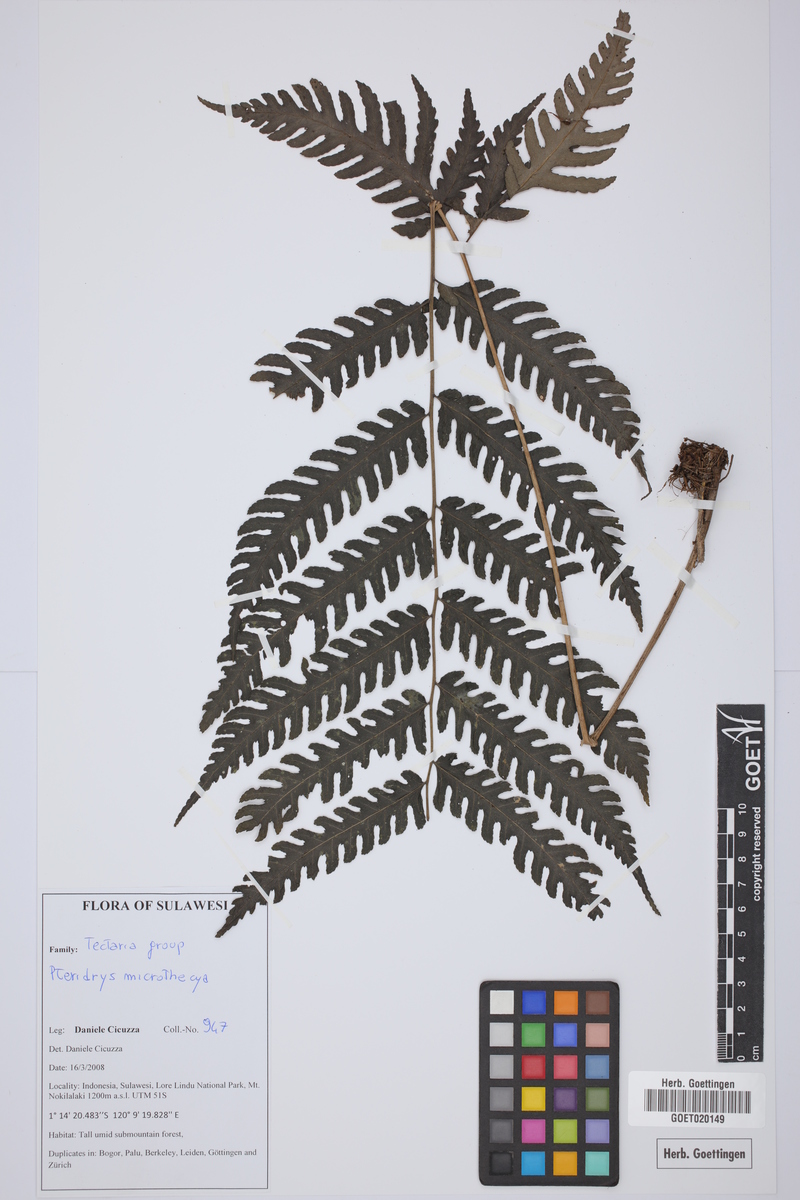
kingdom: Plantae
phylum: Tracheophyta
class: Polypodiopsida
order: Polypodiales
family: Tectariaceae
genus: Pteridrys
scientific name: Pteridrys microthecia
